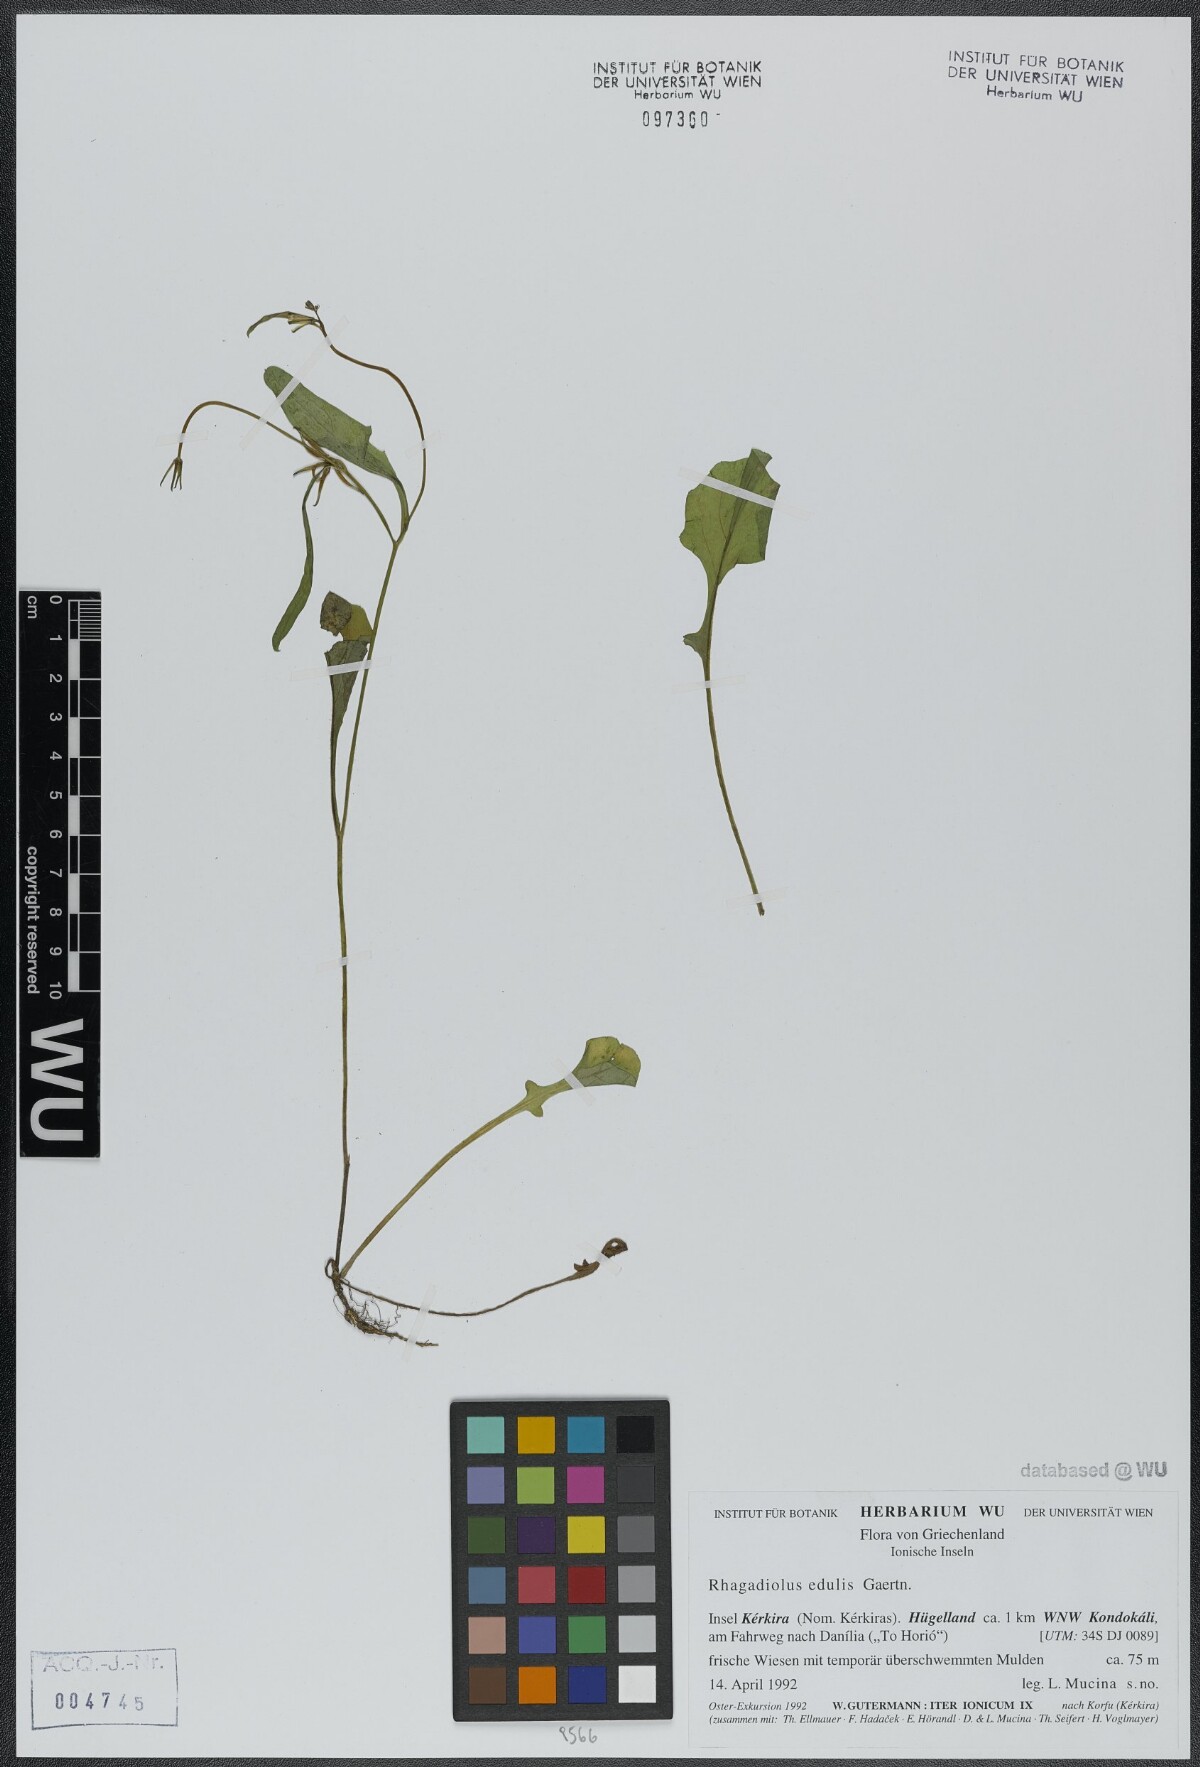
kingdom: Plantae
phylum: Tracheophyta
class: Magnoliopsida
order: Asterales
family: Asteraceae
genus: Rhagadiolus
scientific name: Rhagadiolus edulis
